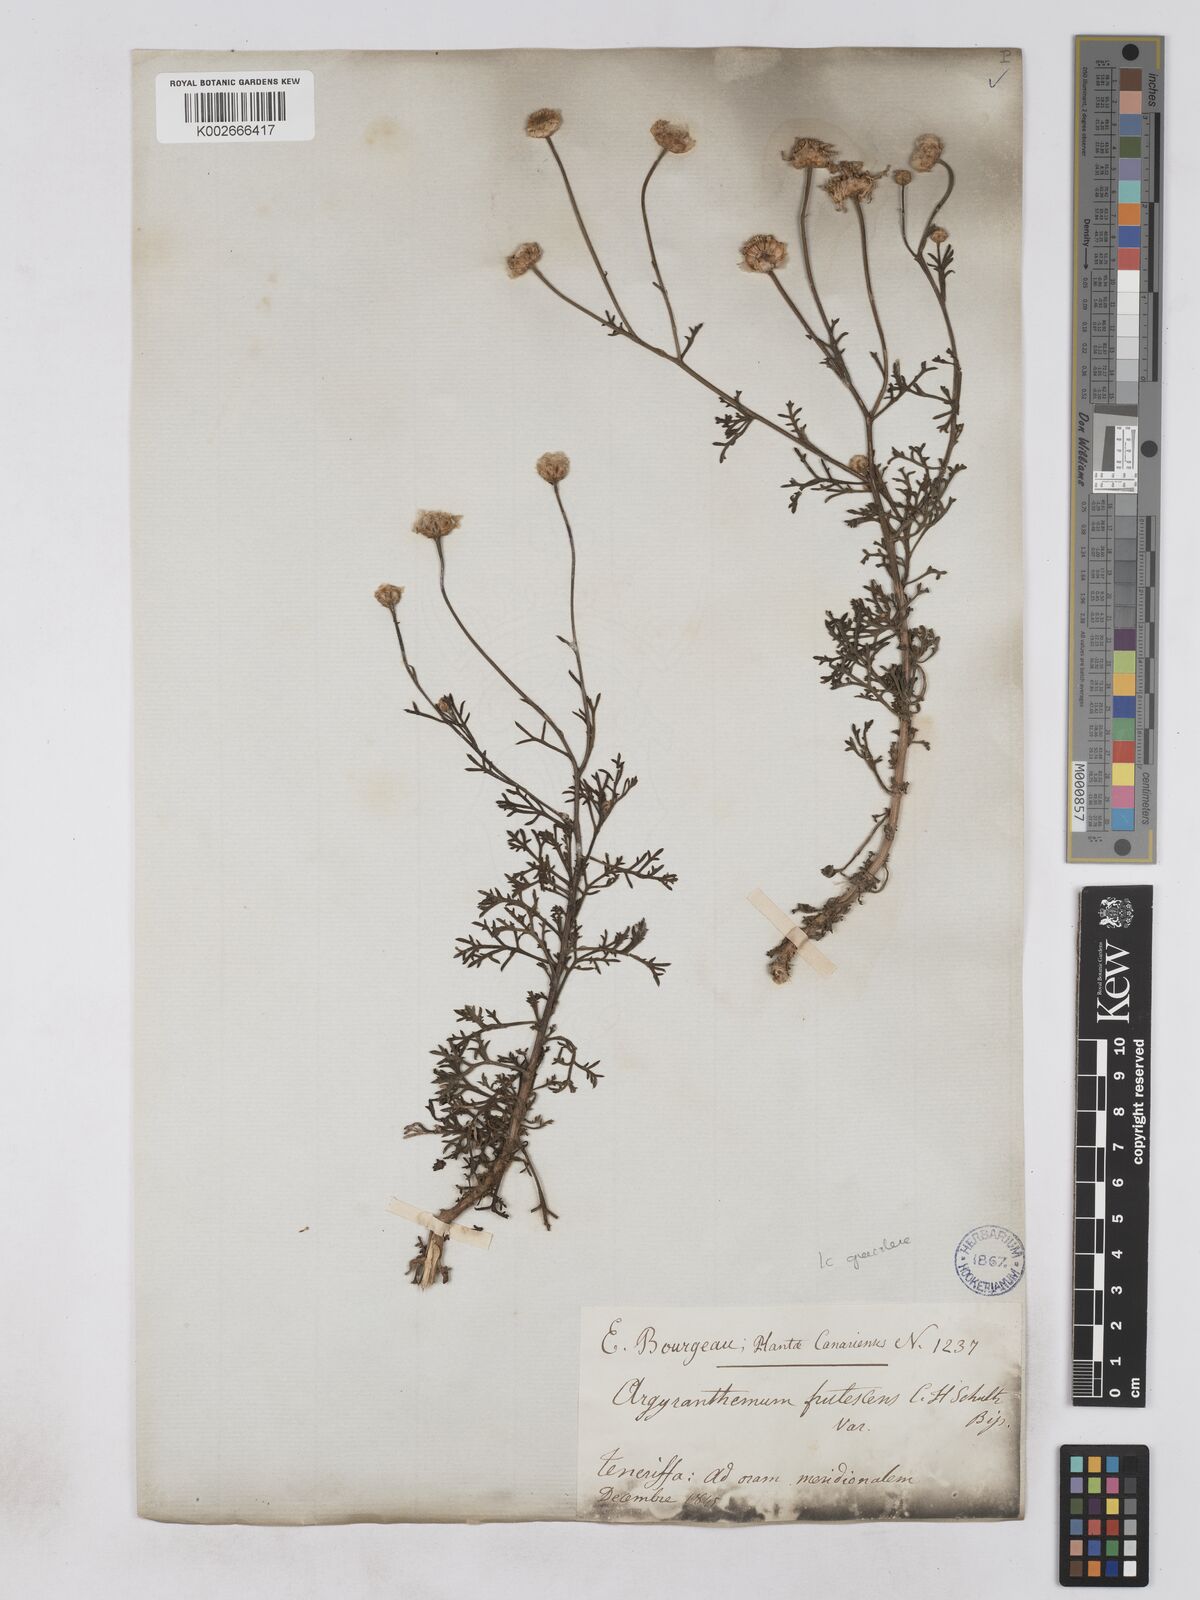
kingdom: Plantae
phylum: Tracheophyta
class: Magnoliopsida
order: Asterales
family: Asteraceae
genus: Argyranthemum
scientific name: Argyranthemum frutescens
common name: Paris daisy
